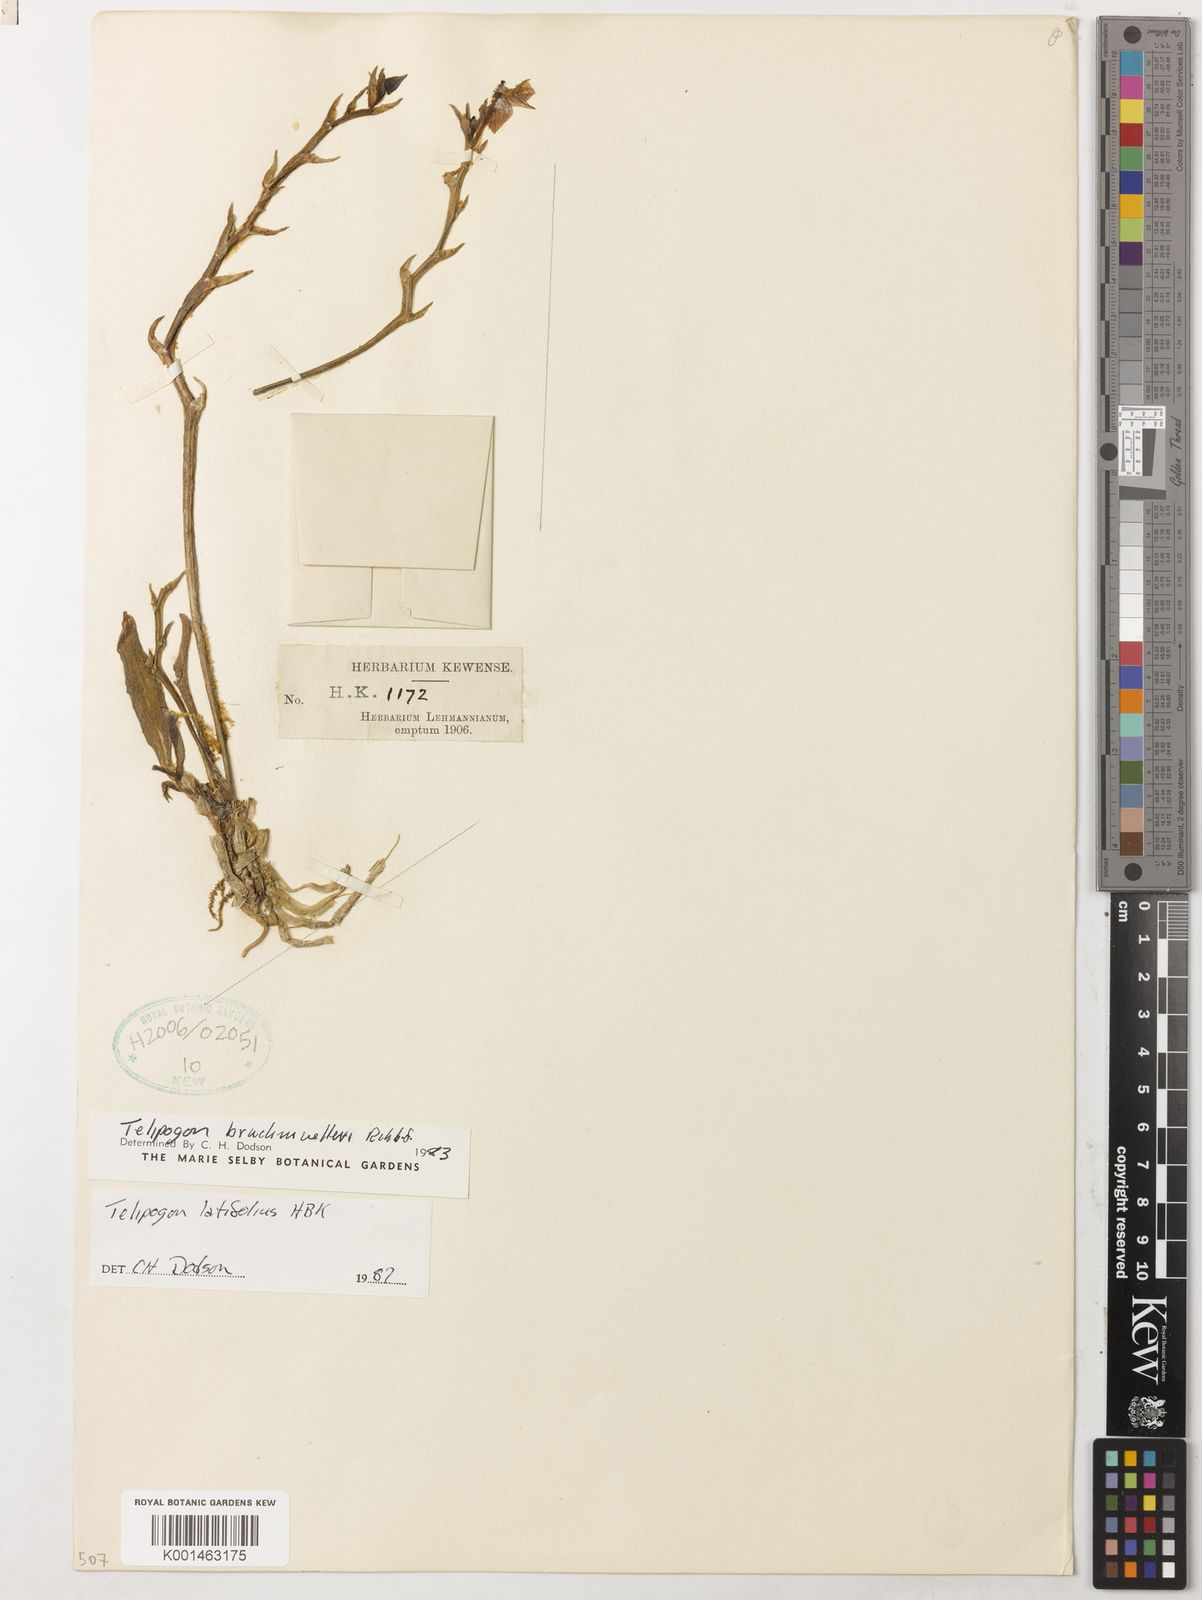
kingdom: Plantae
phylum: Tracheophyta
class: Liliopsida
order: Asparagales
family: Orchidaceae
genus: Telipogon
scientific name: Telipogon latifolius
